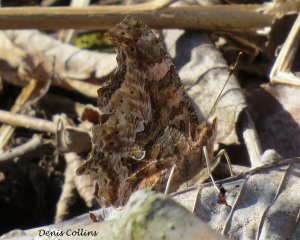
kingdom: Animalia
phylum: Arthropoda
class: Insecta
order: Lepidoptera
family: Nymphalidae
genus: Polygonia
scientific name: Polygonia comma
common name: Eastern Comma
